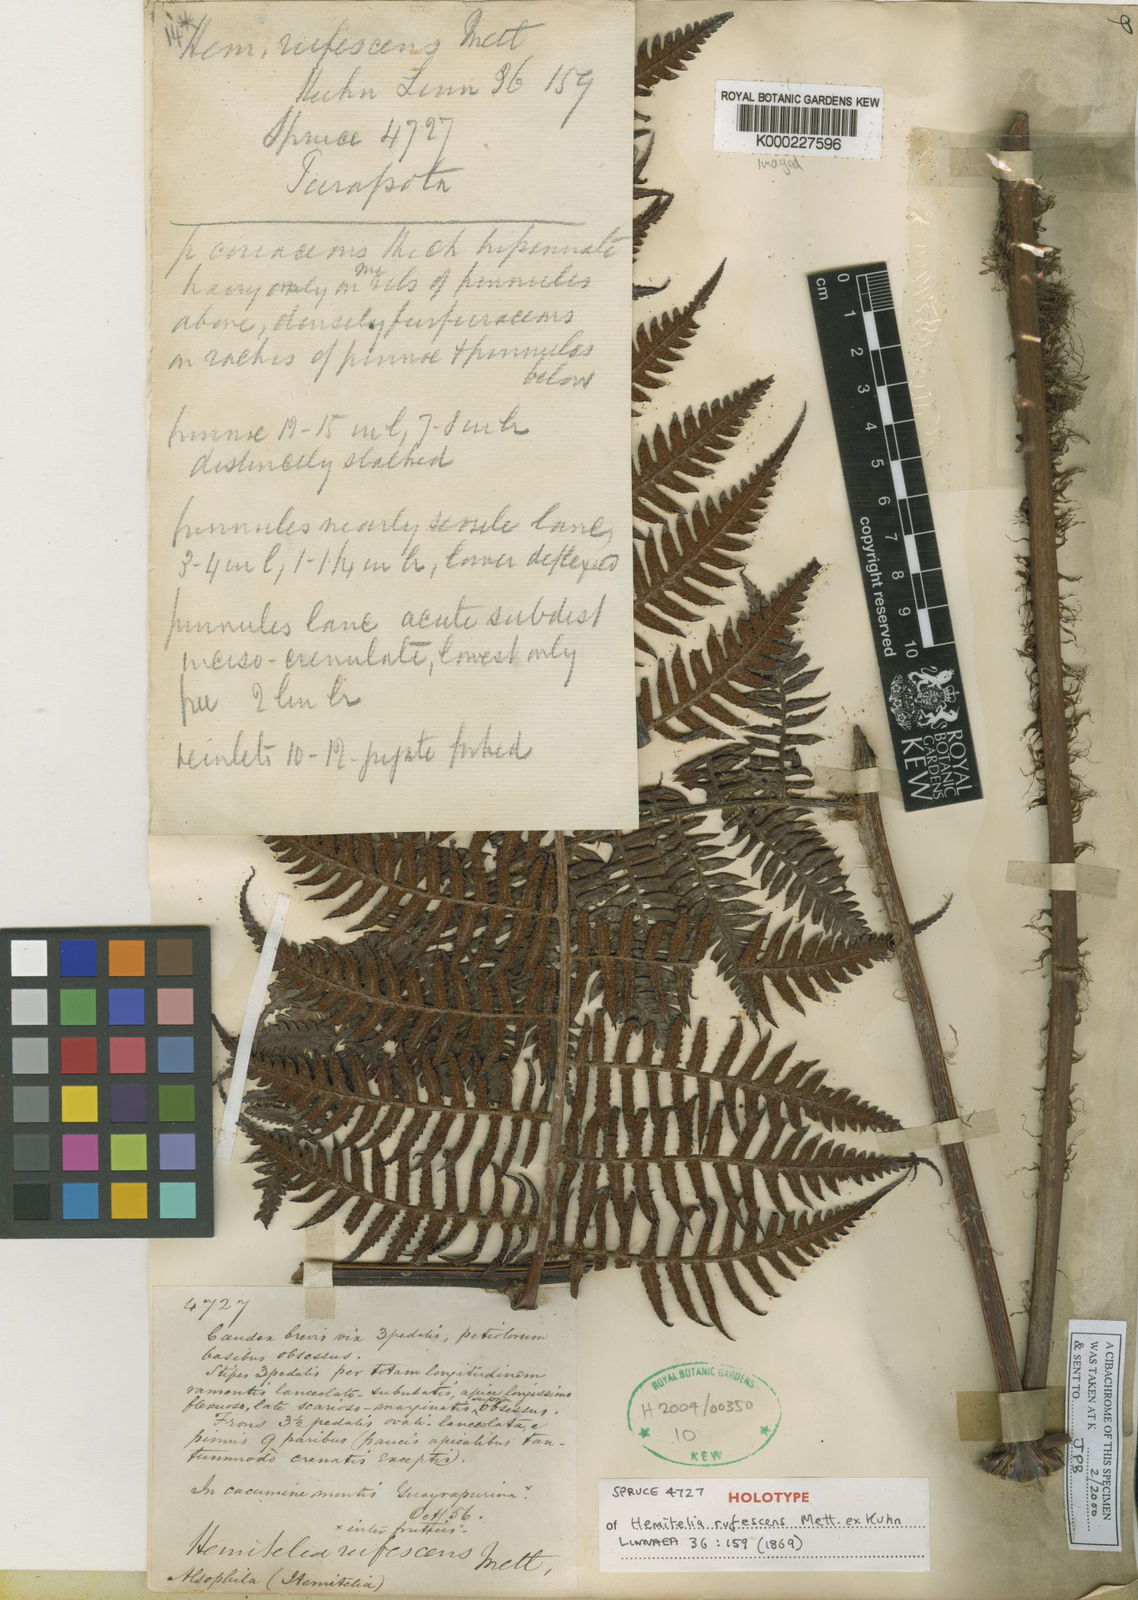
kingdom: Plantae
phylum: Tracheophyta
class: Polypodiopsida
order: Cyatheales
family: Cyatheaceae
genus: Cyathea
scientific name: Cyathea rufescens
